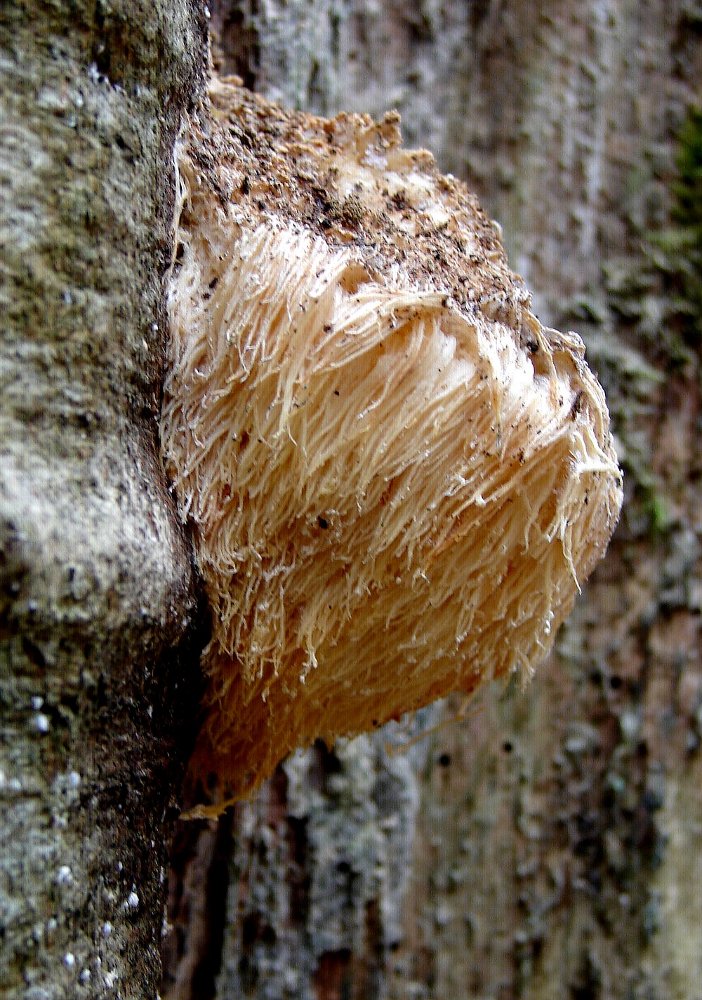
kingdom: Fungi
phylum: Basidiomycota
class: Agaricomycetes
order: Russulales
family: Hericiaceae
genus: Hericium
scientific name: Hericium erinaceus
